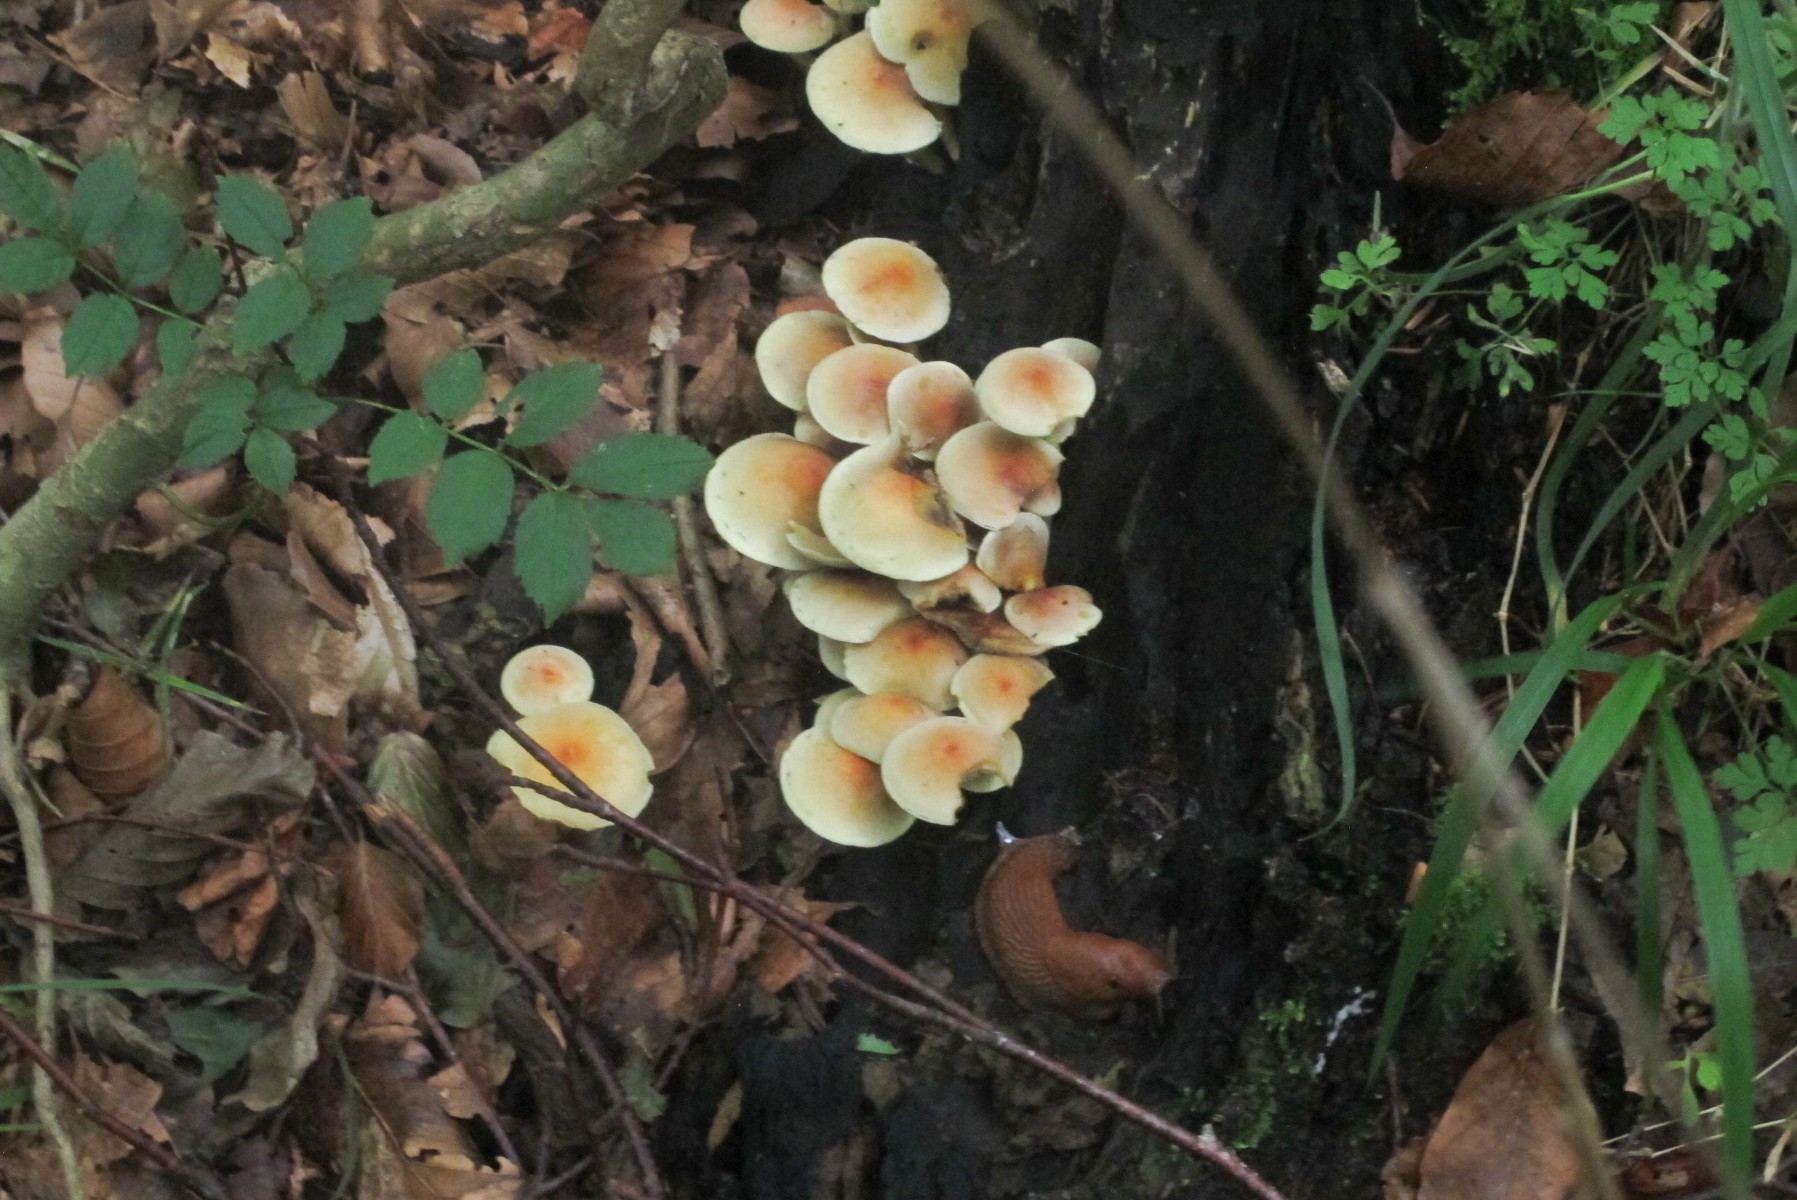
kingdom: Fungi
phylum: Basidiomycota
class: Agaricomycetes
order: Agaricales
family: Strophariaceae
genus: Hypholoma
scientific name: Hypholoma fasciculare
